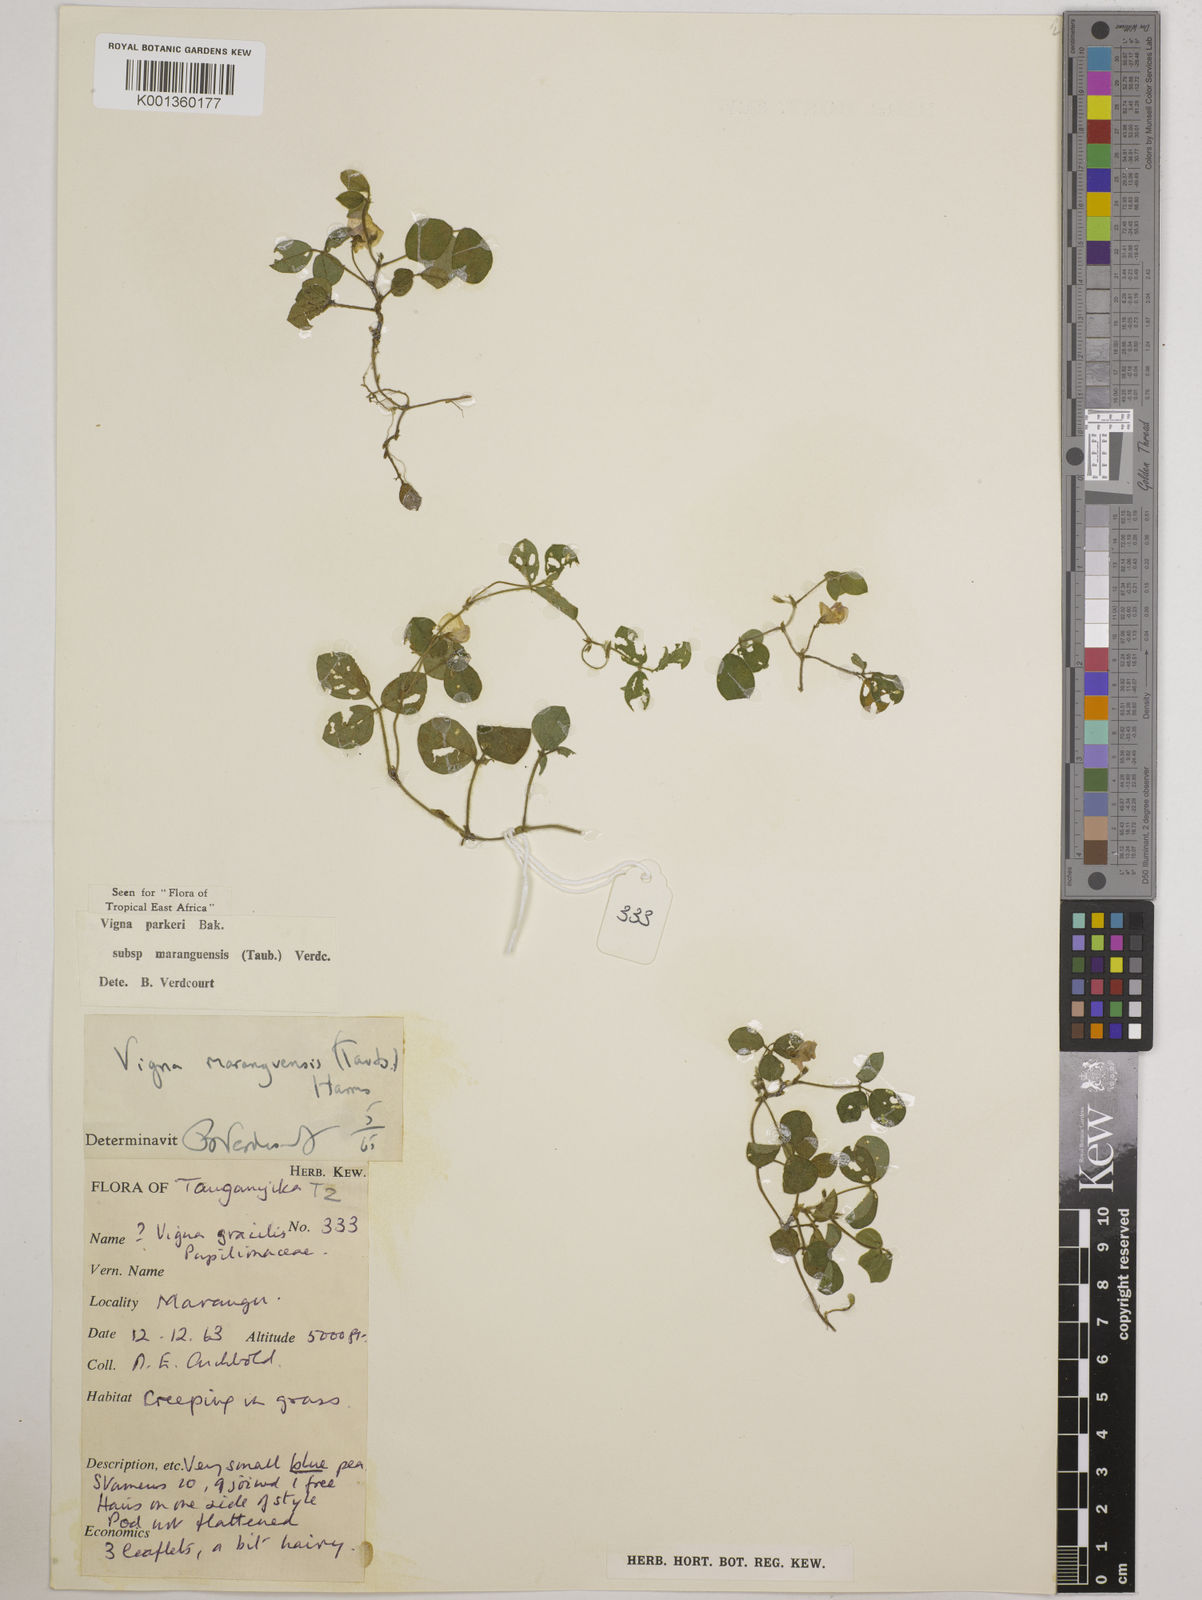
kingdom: Plantae
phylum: Tracheophyta
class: Magnoliopsida
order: Fabales
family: Fabaceae
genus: Vigna
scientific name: Vigna
